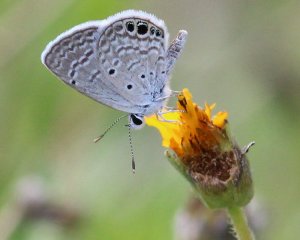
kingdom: Animalia
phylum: Arthropoda
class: Insecta
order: Lepidoptera
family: Lycaenidae
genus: Hemiargus
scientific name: Hemiargus ceraunus
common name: Ceraunus Blue
